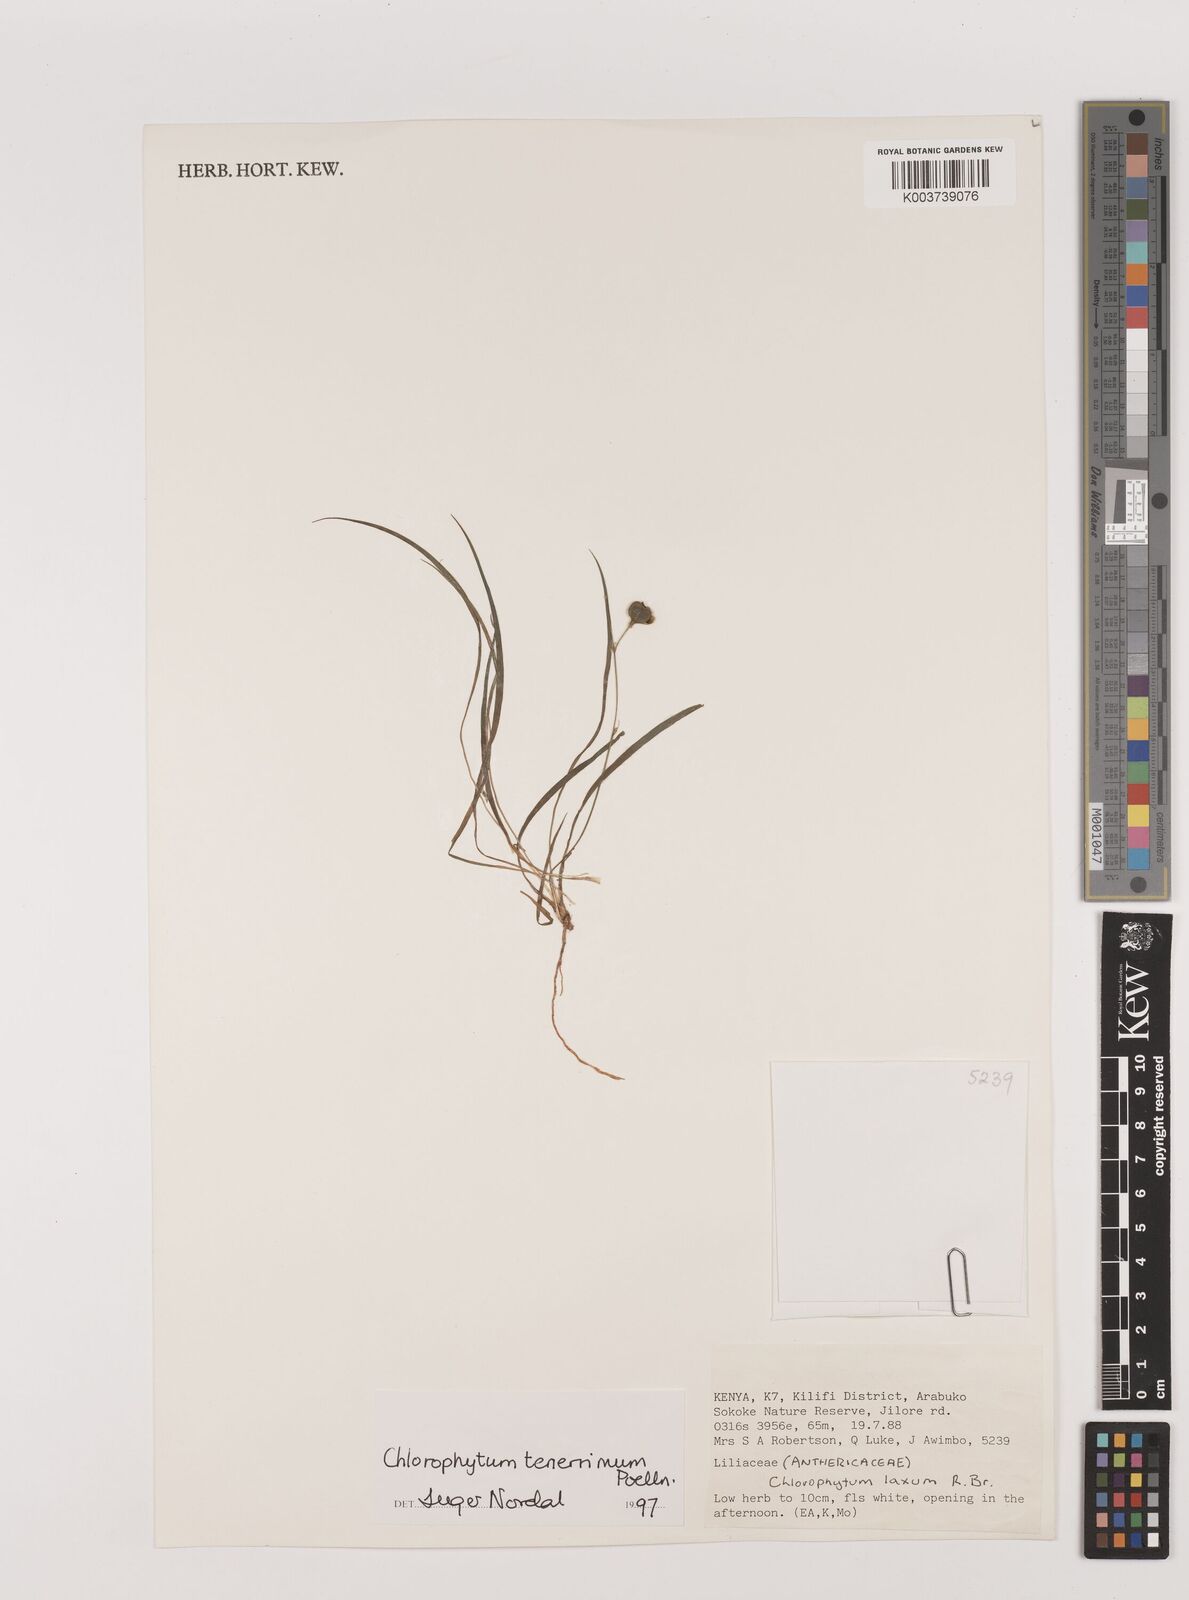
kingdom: Plantae
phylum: Tracheophyta
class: Liliopsida
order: Asparagales
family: Asparagaceae
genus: Chlorophytum
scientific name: Chlorophytum tenerrimum
